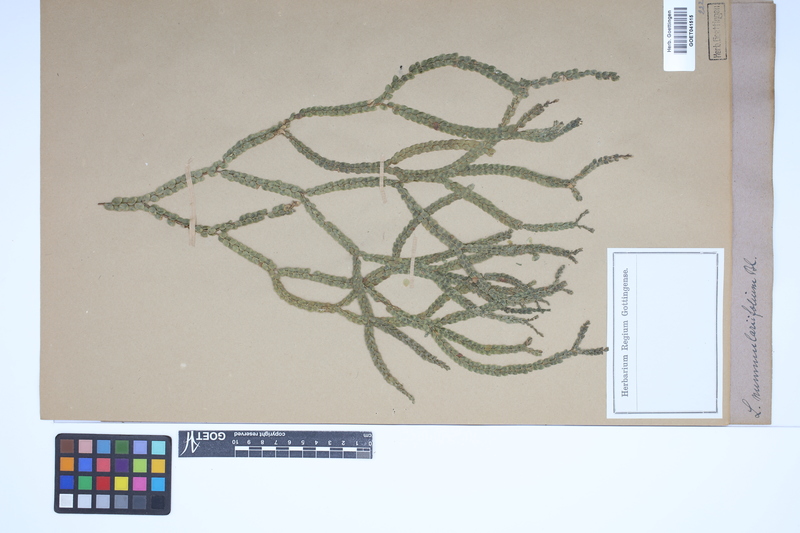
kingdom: Plantae
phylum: Tracheophyta
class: Lycopodiopsida
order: Lycopodiales
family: Lycopodiaceae
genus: Phlegmariurus
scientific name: Phlegmariurus nummulariifolius
